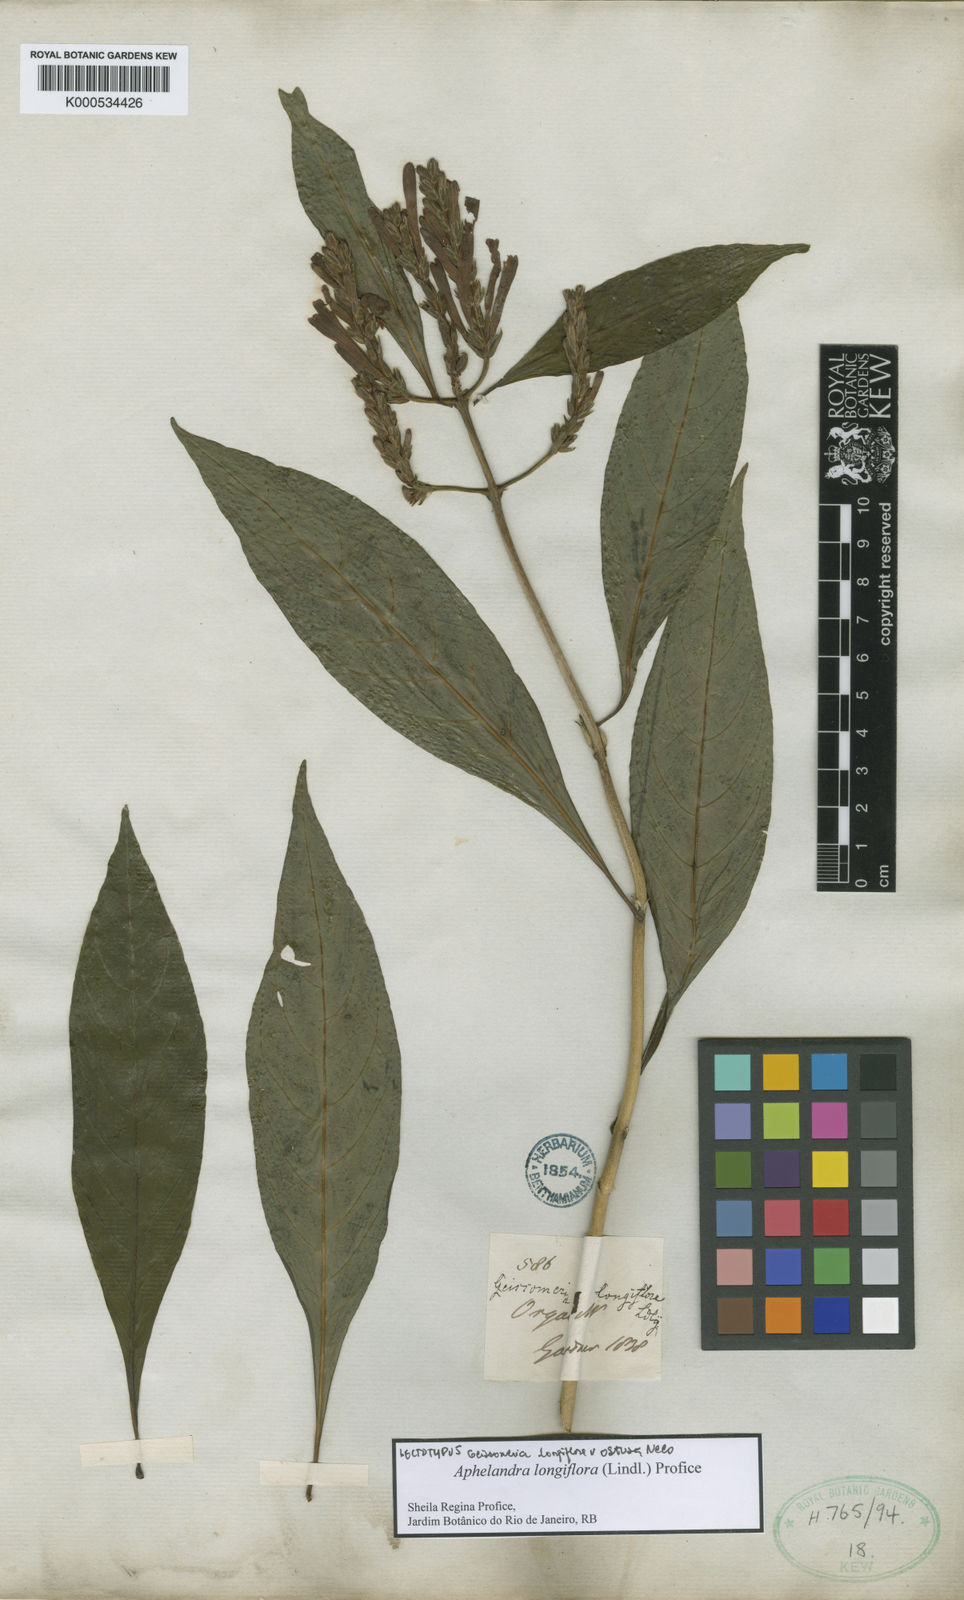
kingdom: Plantae
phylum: Tracheophyta
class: Magnoliopsida
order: Lamiales
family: Acanthaceae
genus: Aphelandra
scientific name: Aphelandra longiflora
